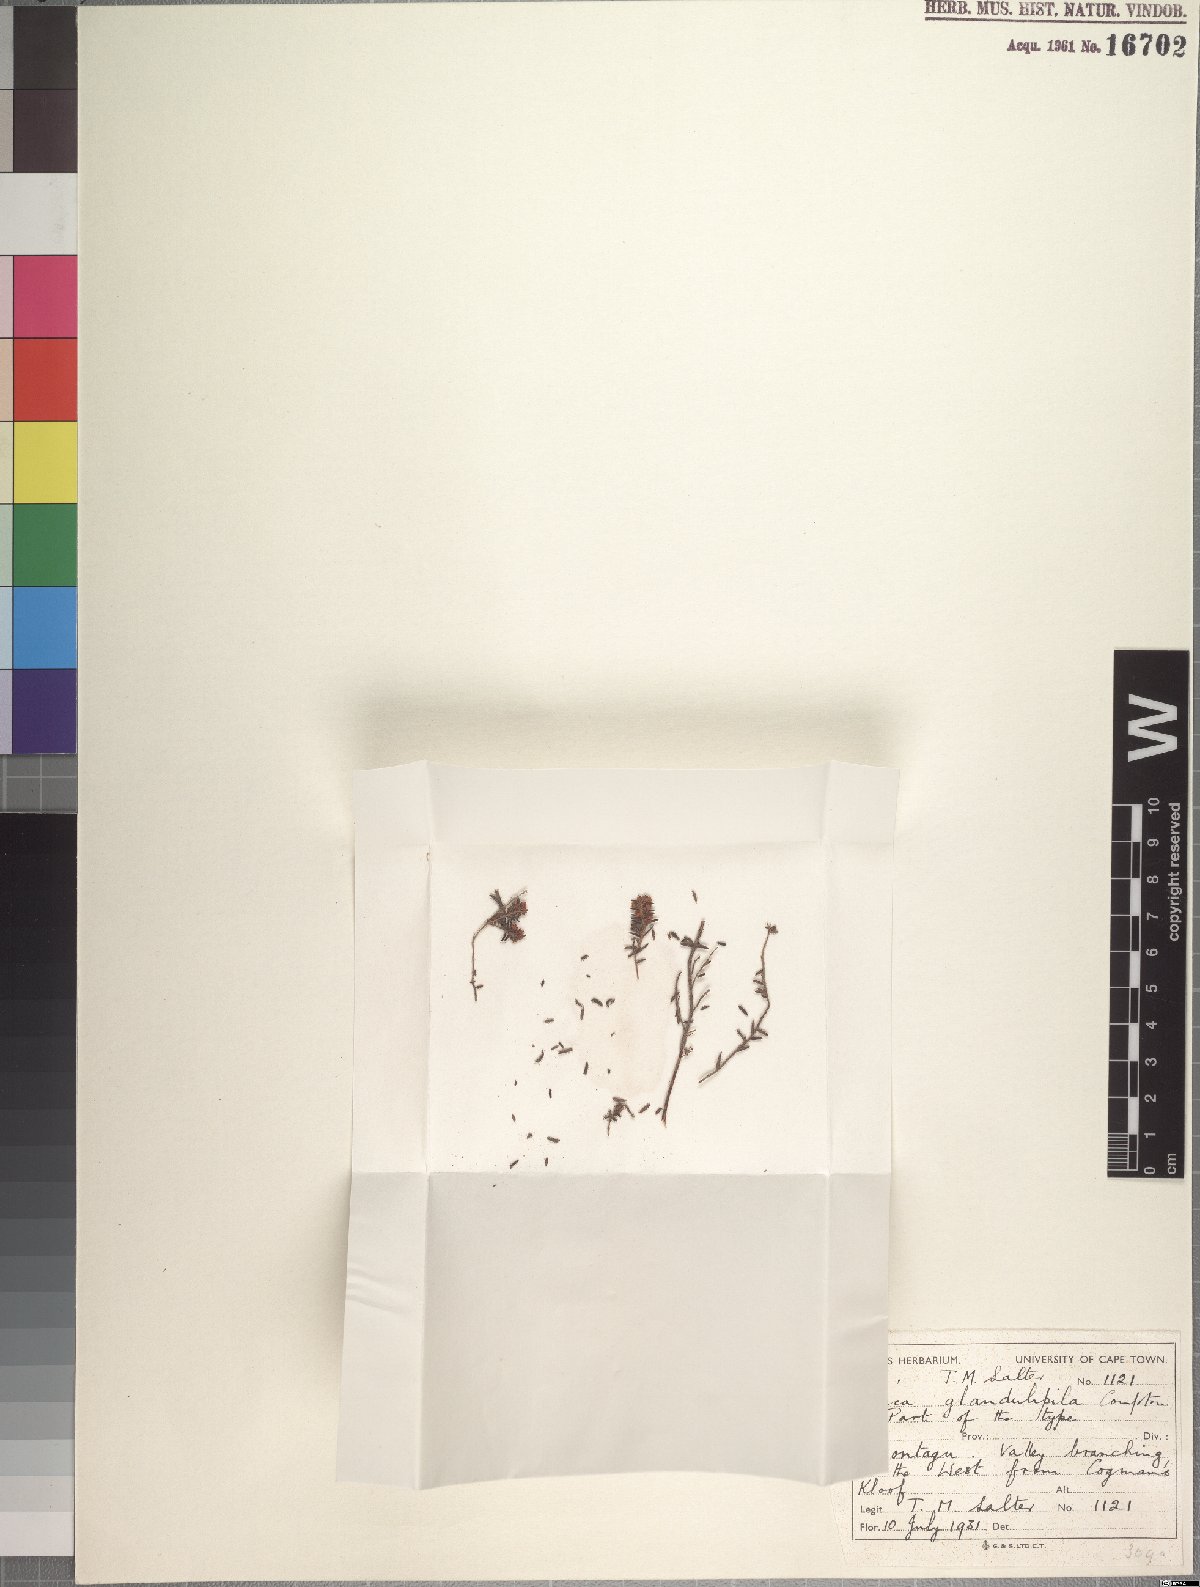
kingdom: Plantae
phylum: Tracheophyta
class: Magnoliopsida
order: Ericales
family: Ericaceae
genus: Erica
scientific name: Erica glandulipila
